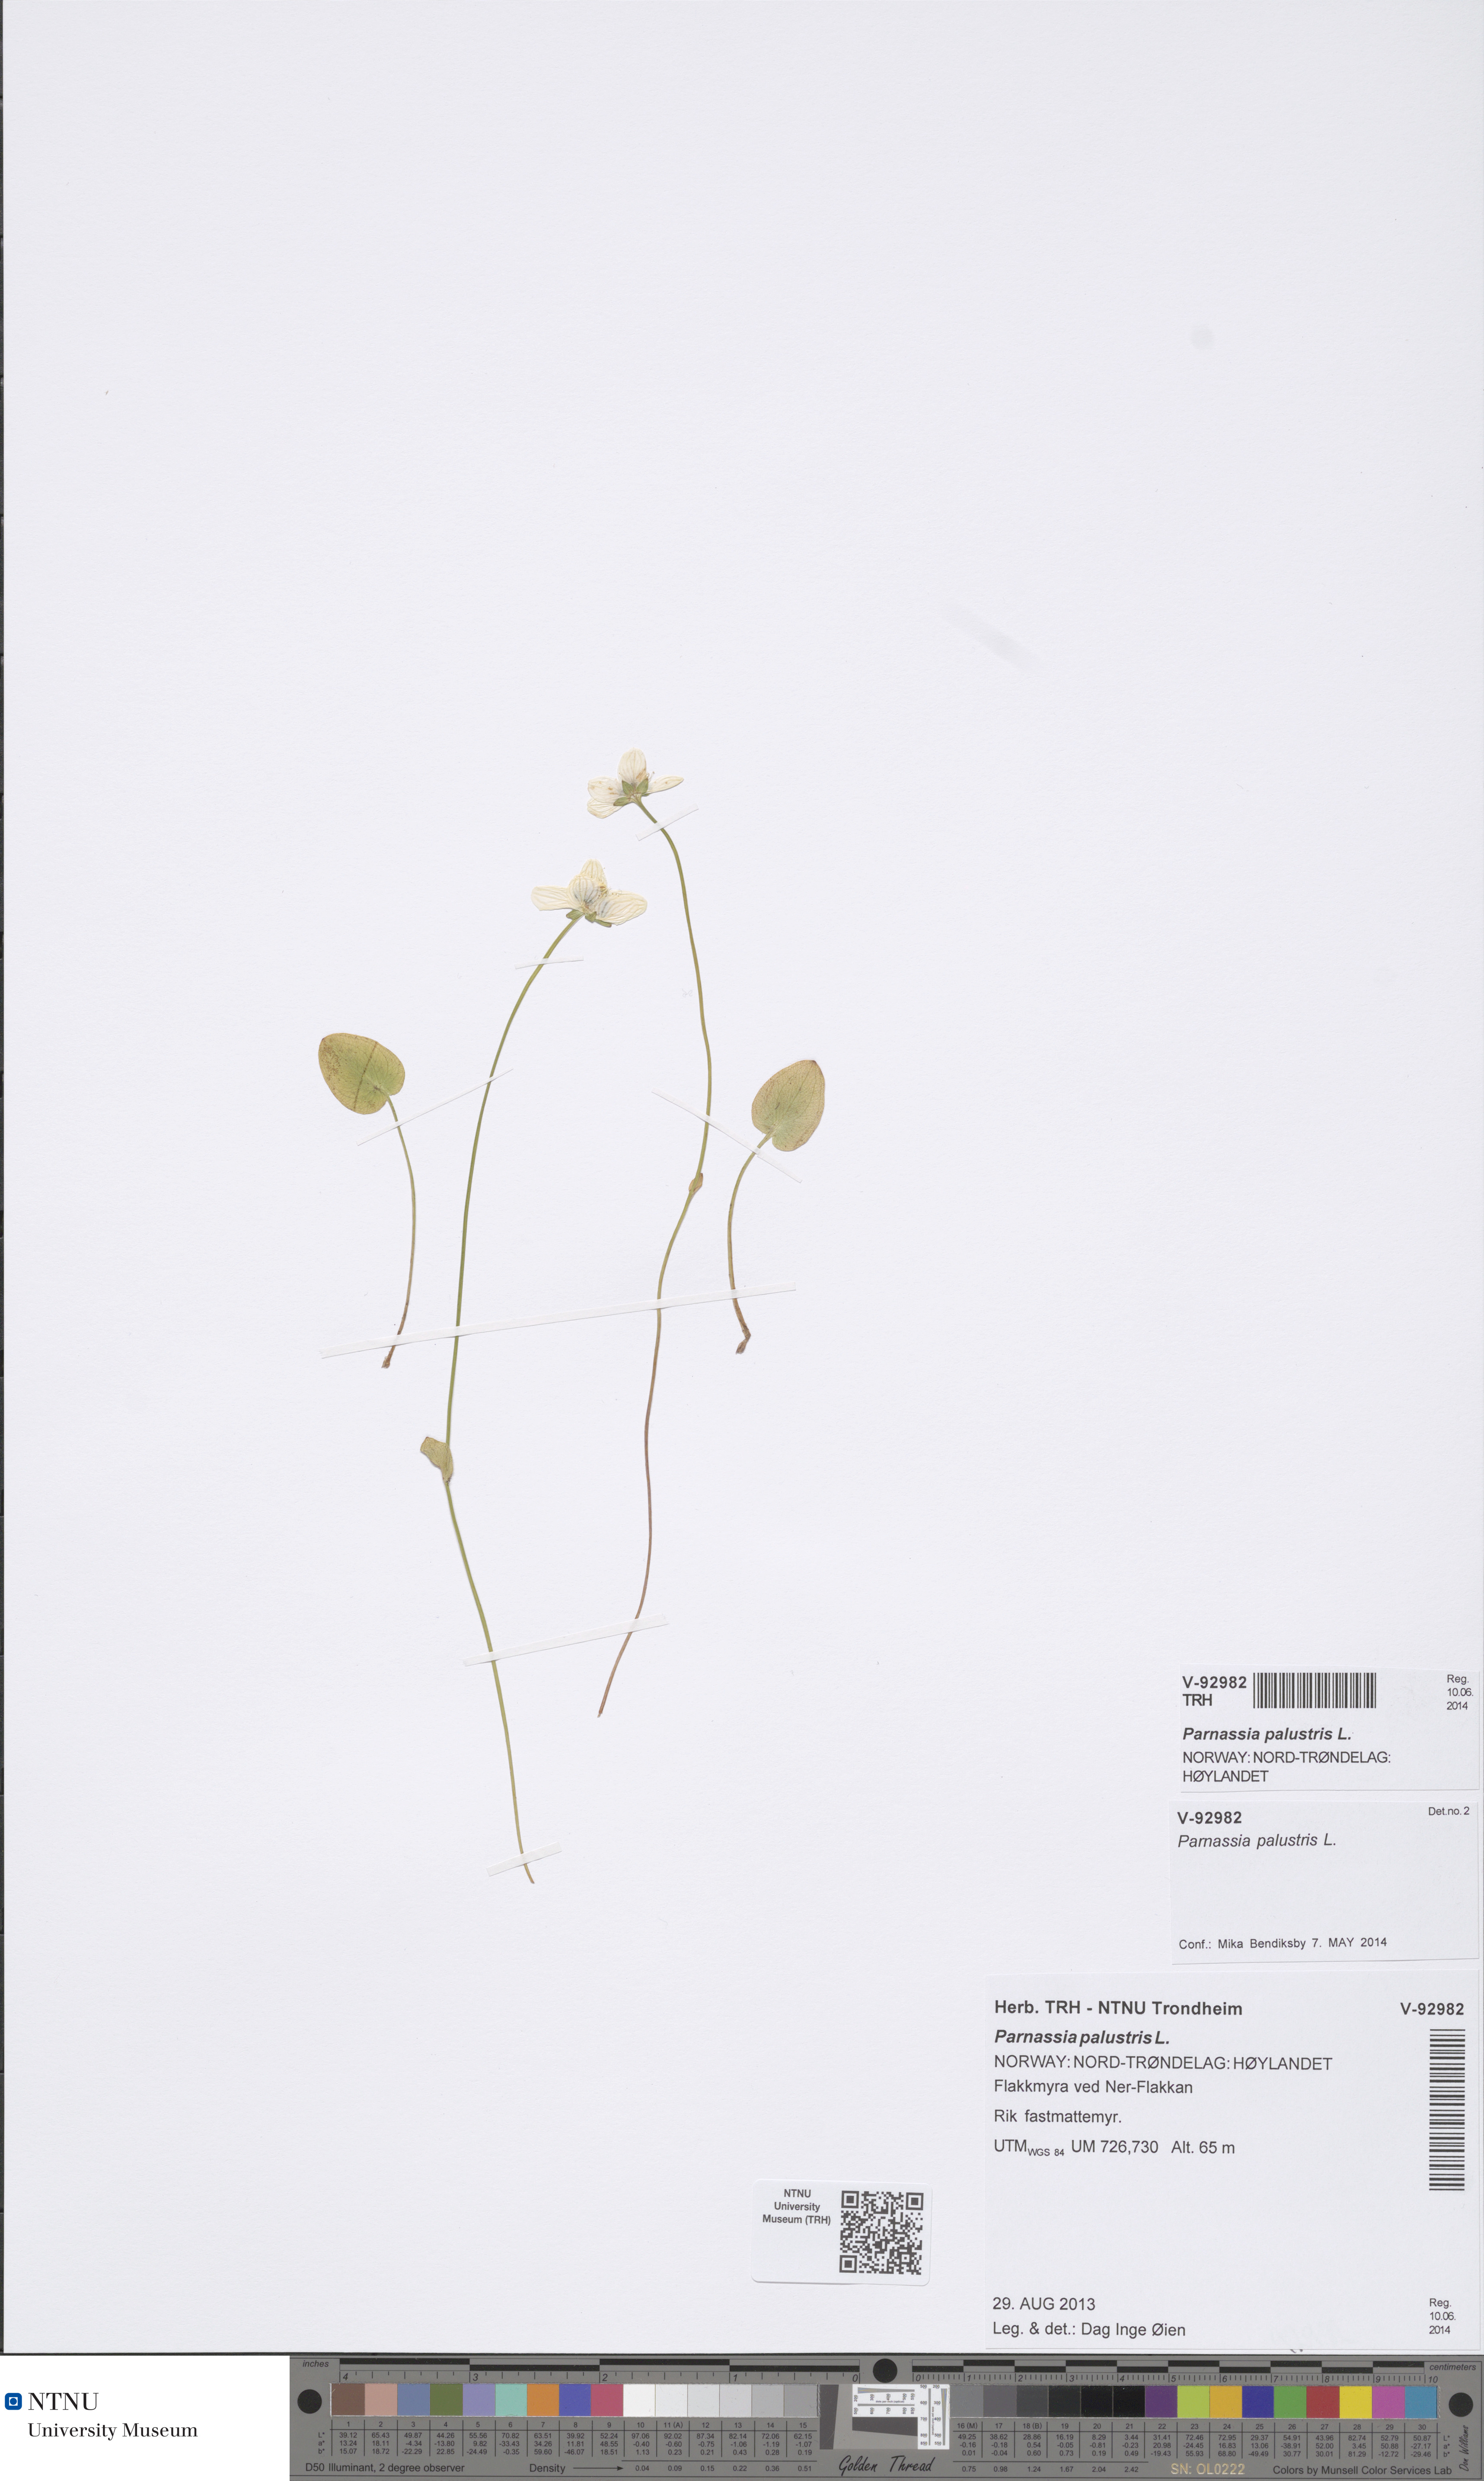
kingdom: Plantae
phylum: Tracheophyta
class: Magnoliopsida
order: Celastrales
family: Parnassiaceae
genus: Parnassia
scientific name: Parnassia palustris
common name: Grass-of-parnassus
